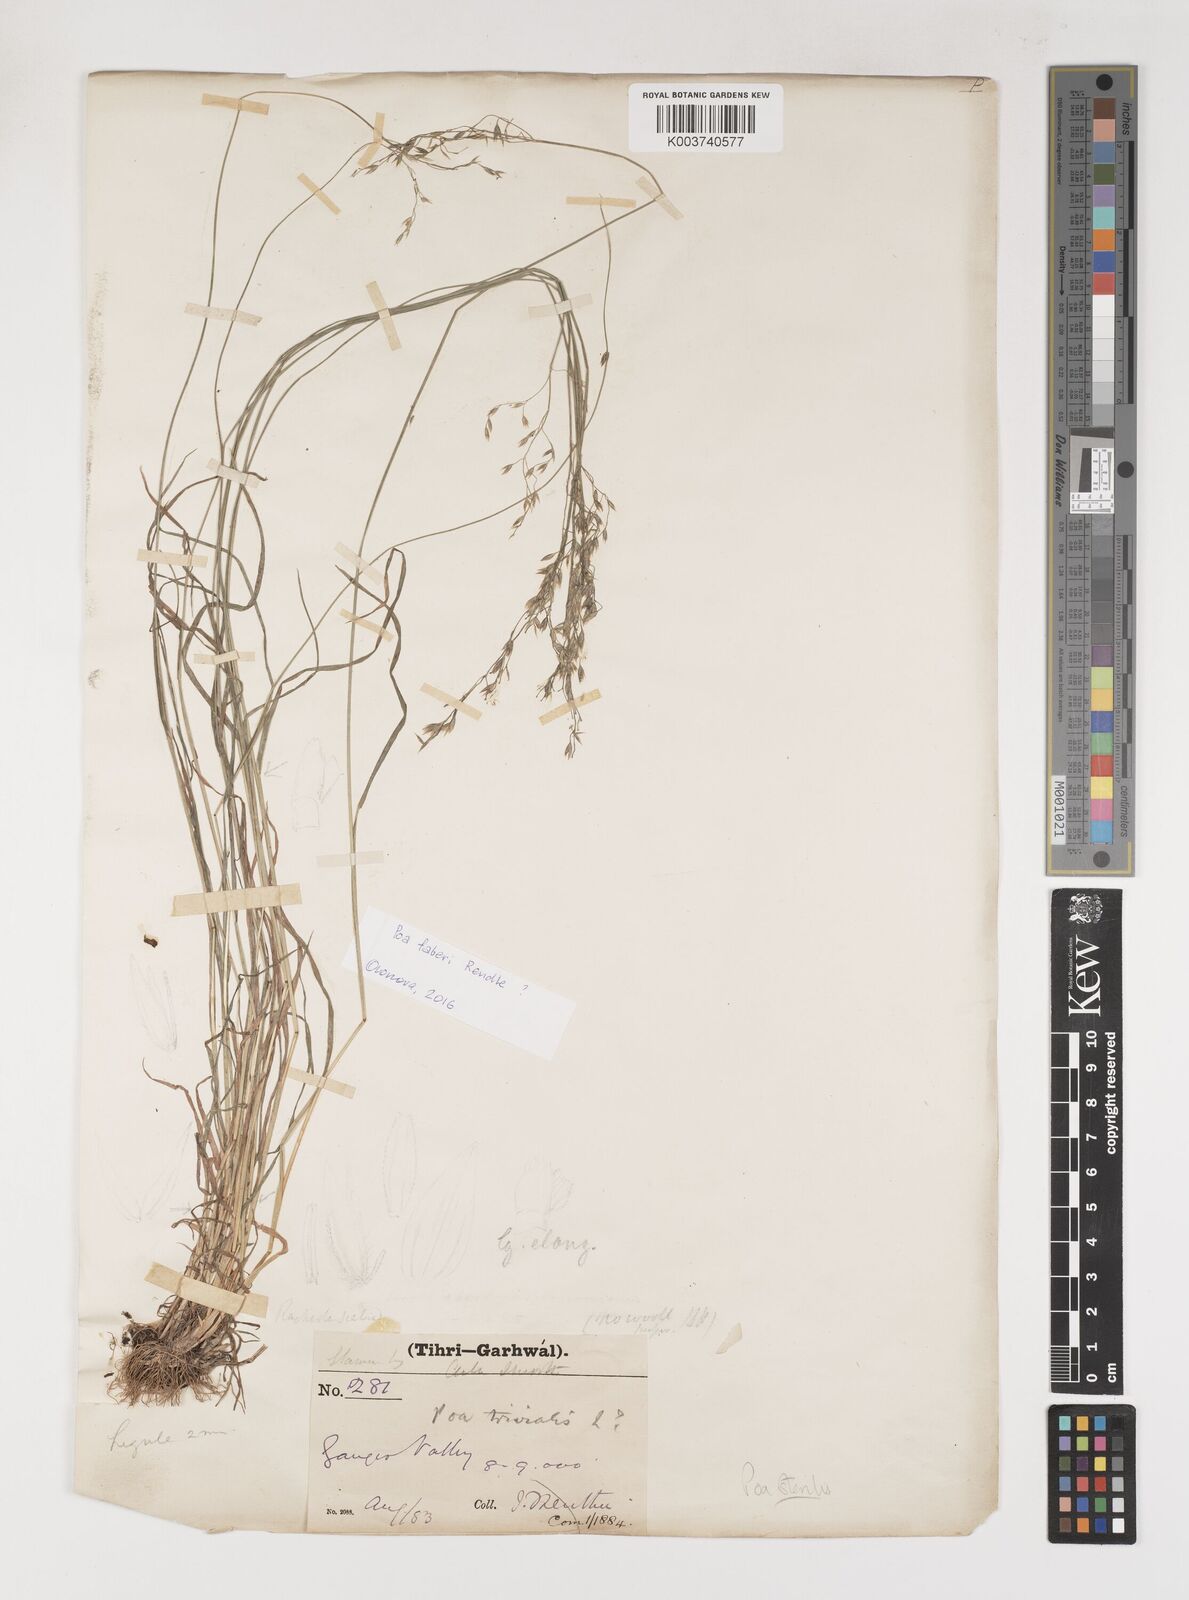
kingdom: Plantae
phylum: Tracheophyta
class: Liliopsida
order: Poales
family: Poaceae
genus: Poa
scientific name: Poa sterilis
